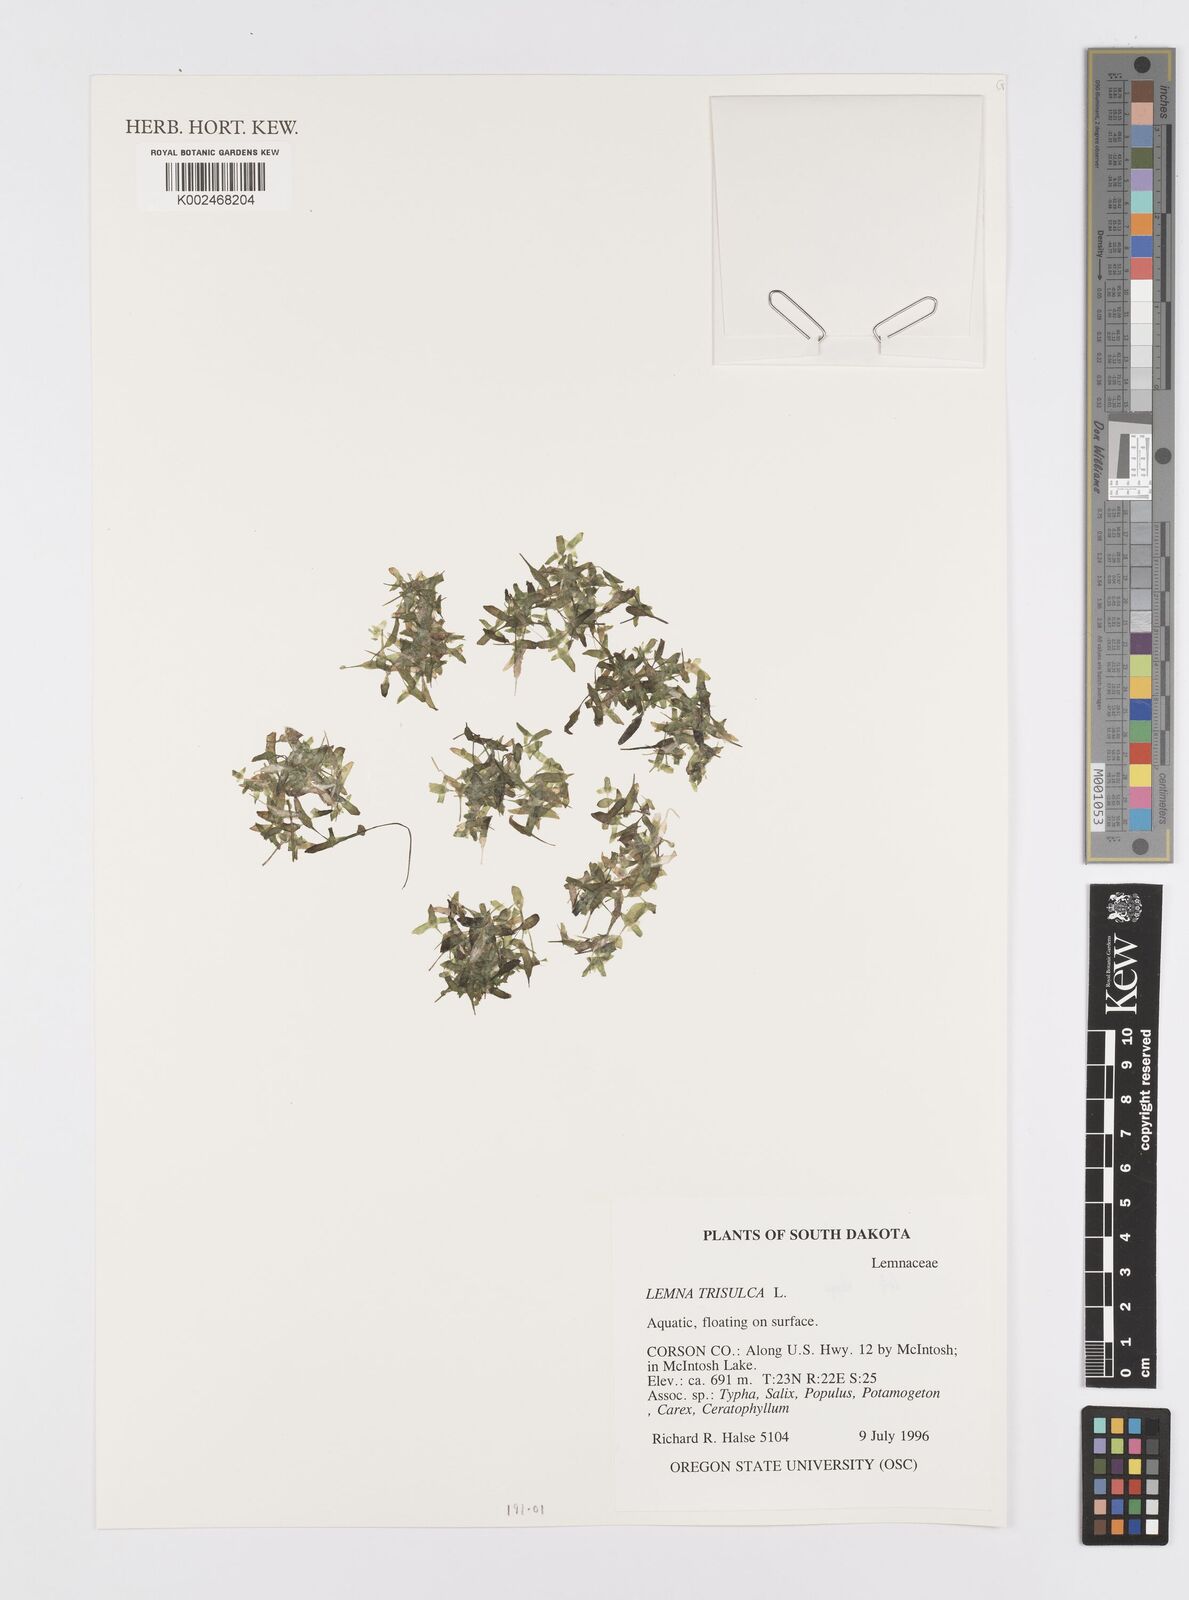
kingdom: Plantae
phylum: Tracheophyta
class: Liliopsida
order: Alismatales
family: Araceae
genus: Lemna
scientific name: Lemna trisulca
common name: Ivy-leaved duckweed
